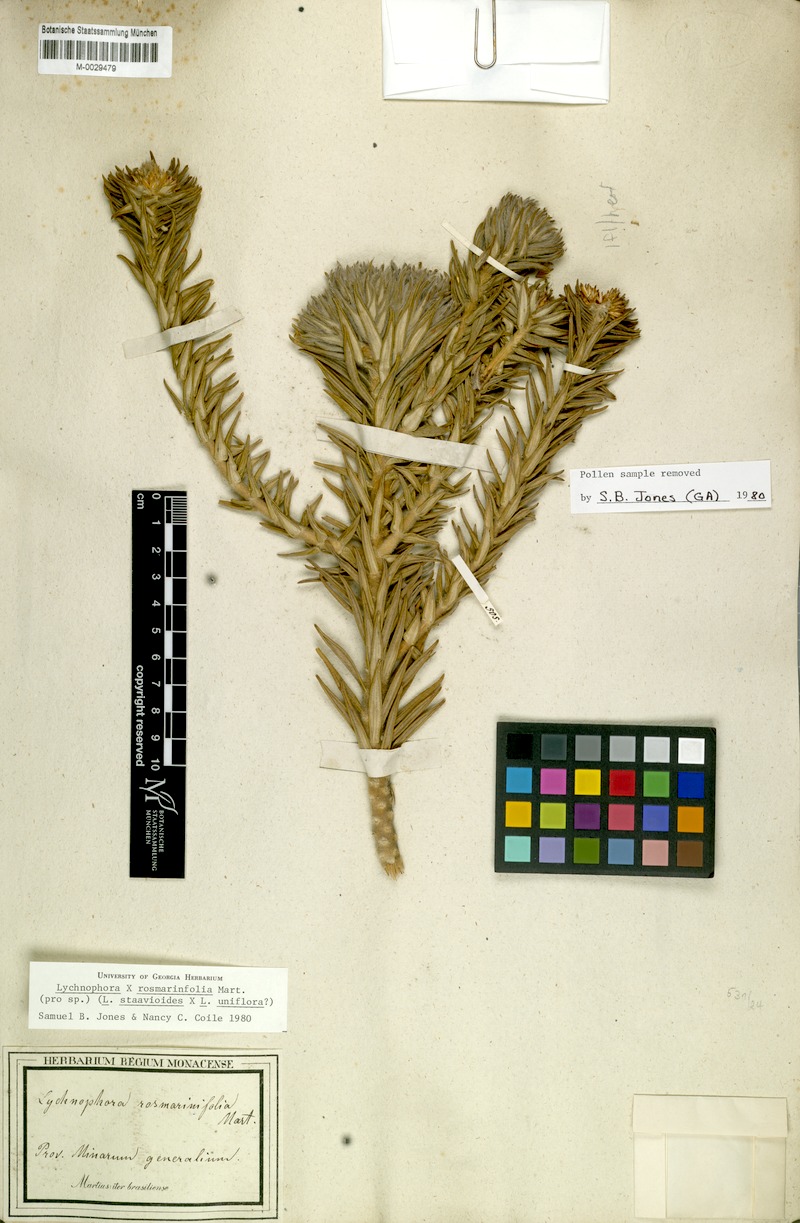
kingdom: Plantae
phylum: Tracheophyta
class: Magnoliopsida
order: Asterales
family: Asteraceae
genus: Lychnophora
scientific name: Lychnophora rosmarinifolia
